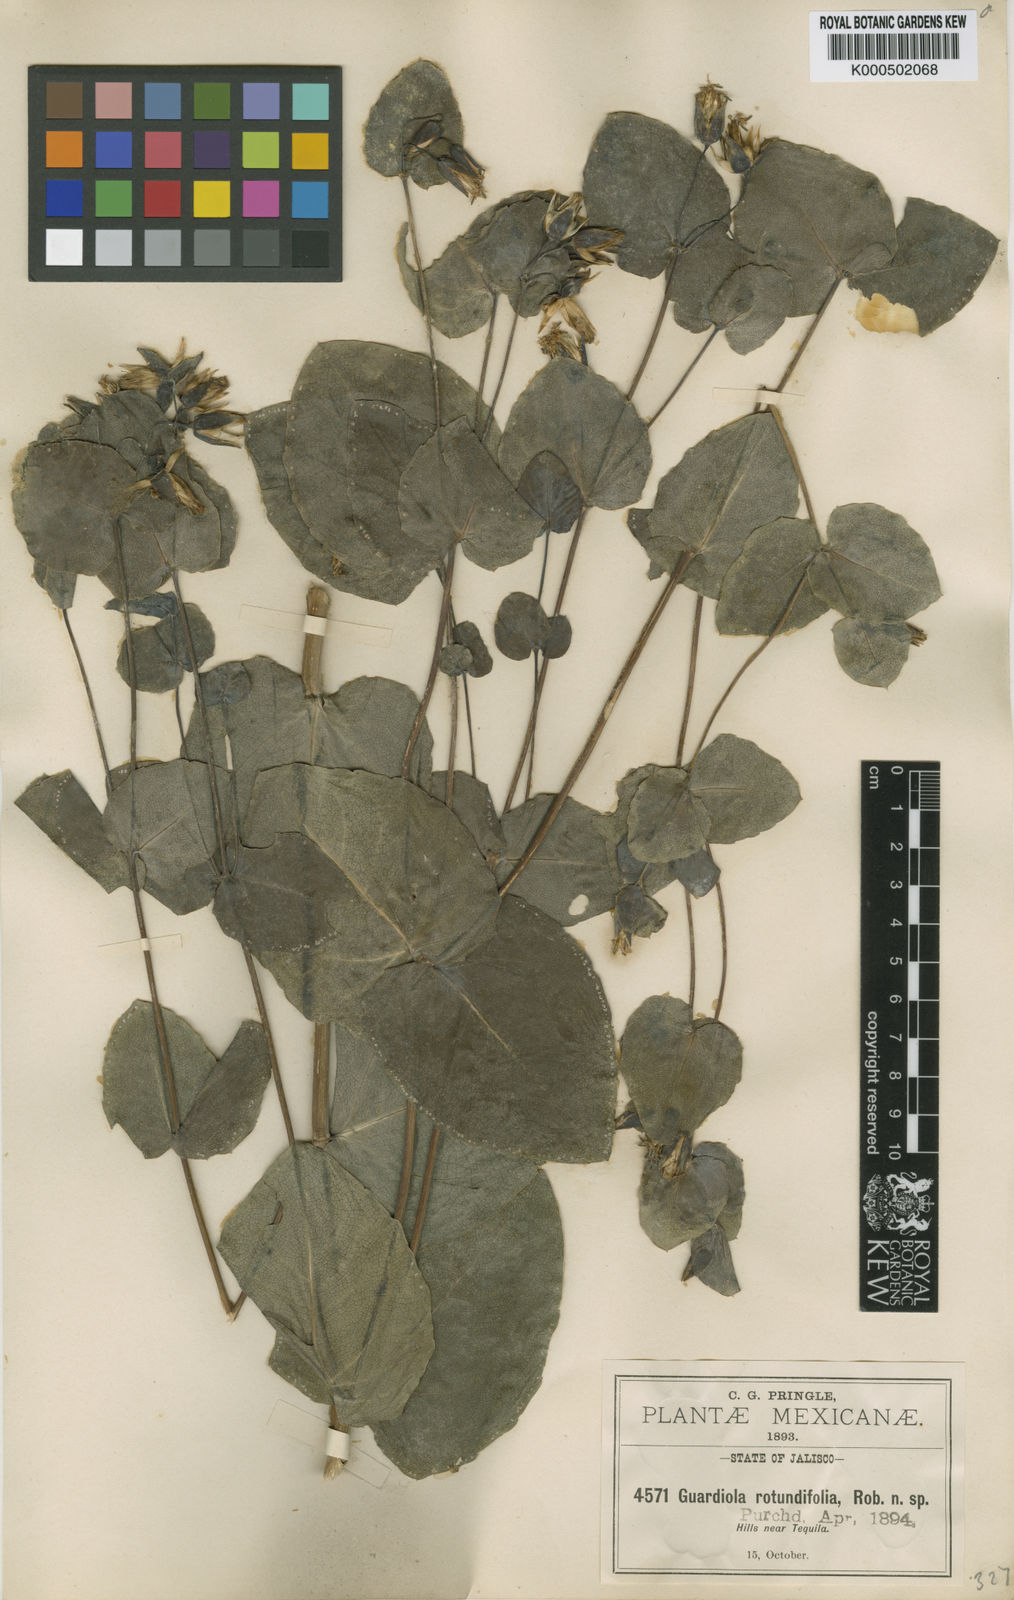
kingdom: Plantae
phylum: Tracheophyta
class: Magnoliopsida
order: Asterales
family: Asteraceae
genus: Guardiola
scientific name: Guardiola rotundifolia
